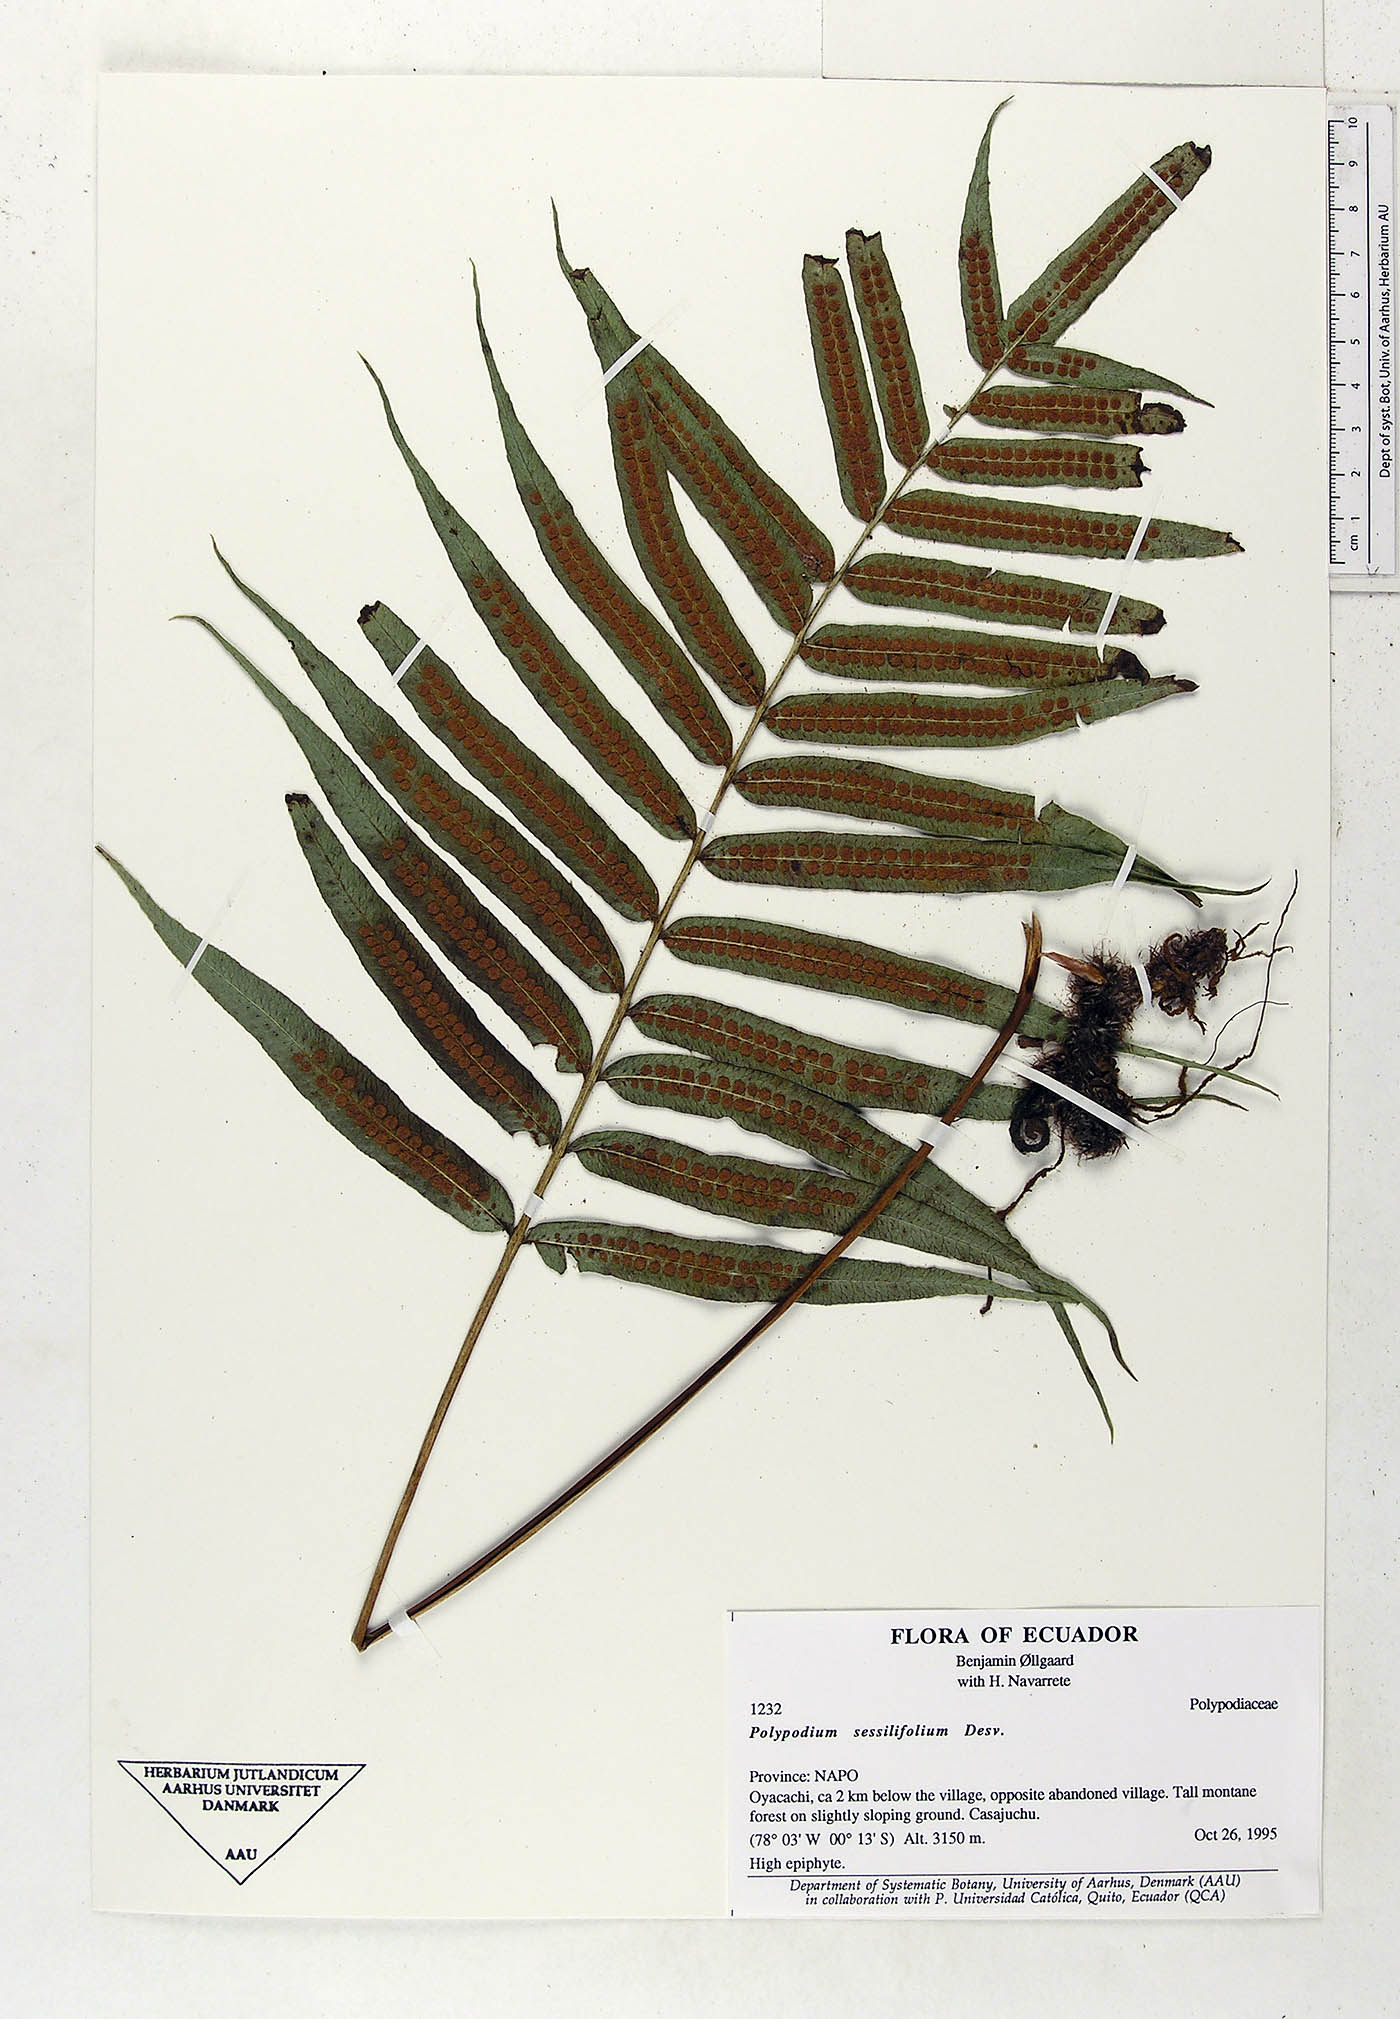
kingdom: Plantae
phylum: Tracheophyta
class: Polypodiopsida
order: Polypodiales
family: Polypodiaceae
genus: Serpocaulon
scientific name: Serpocaulon sessilifolium
